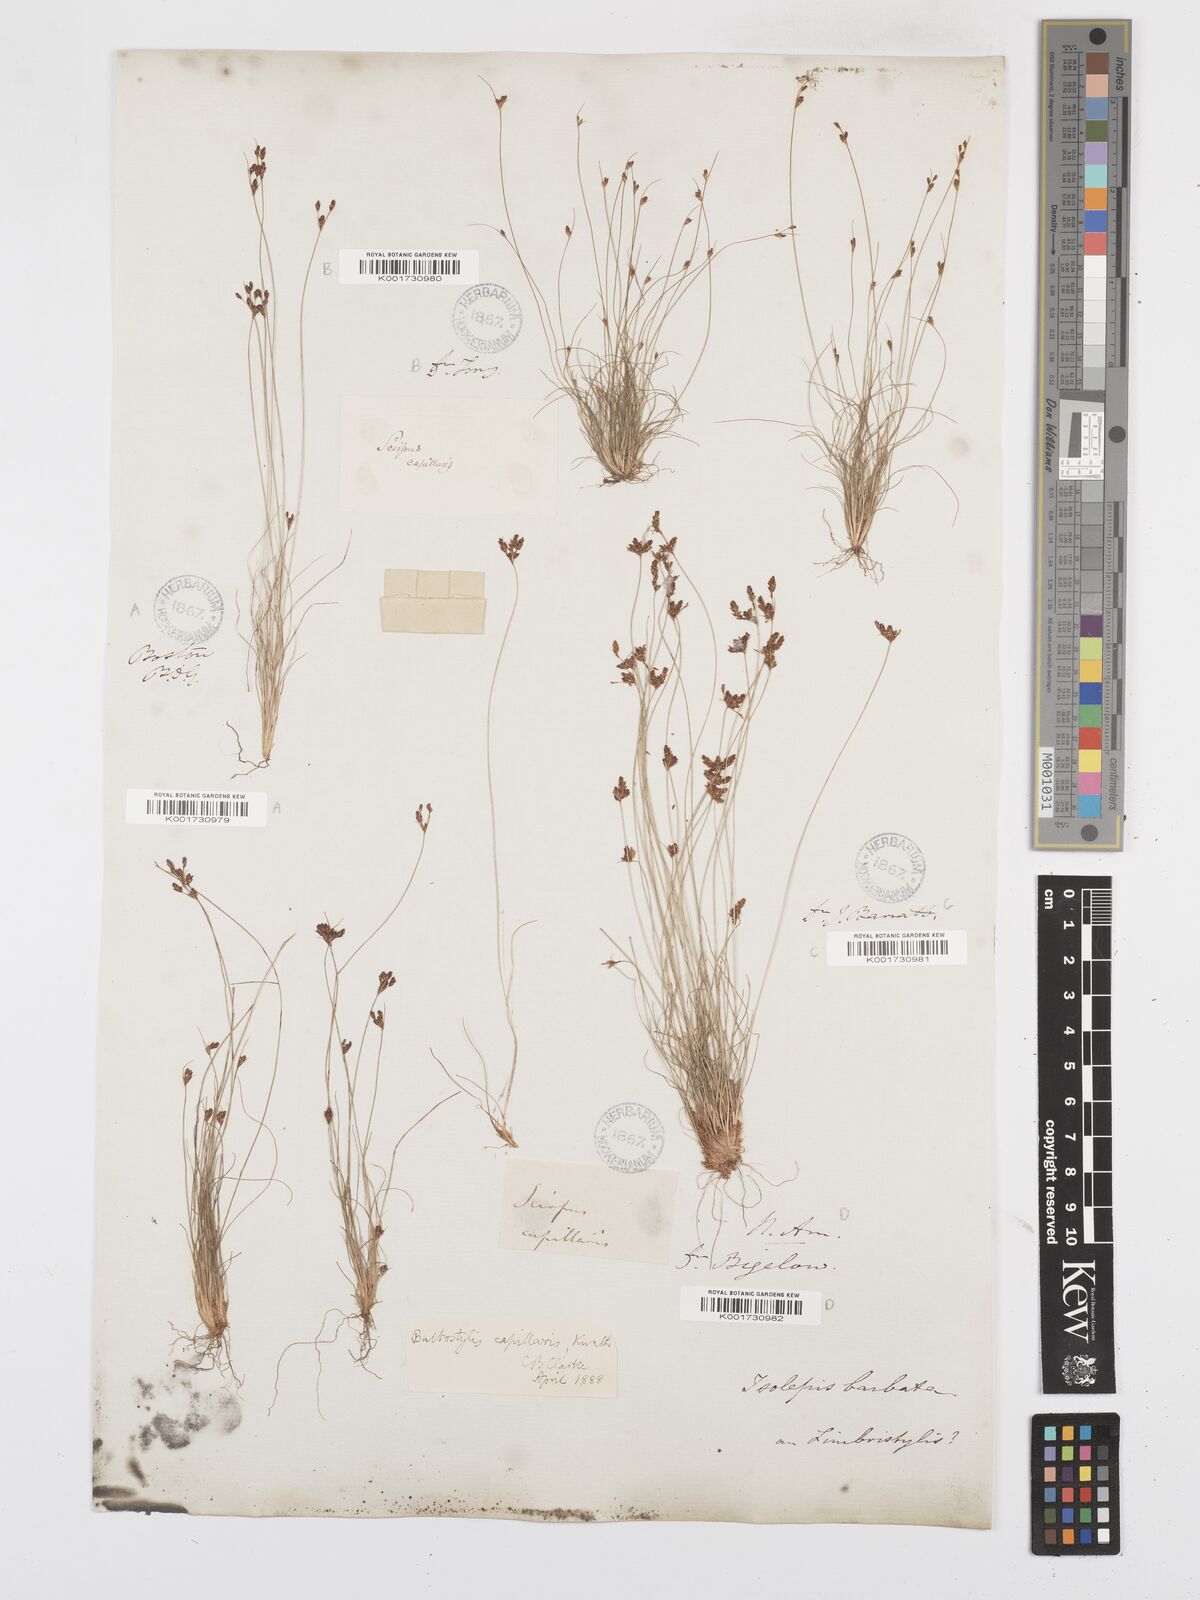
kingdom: Plantae
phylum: Tracheophyta
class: Liliopsida
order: Poales
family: Cyperaceae
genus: Bulbostylis
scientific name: Bulbostylis capillaris
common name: Densetuft hairsedge
